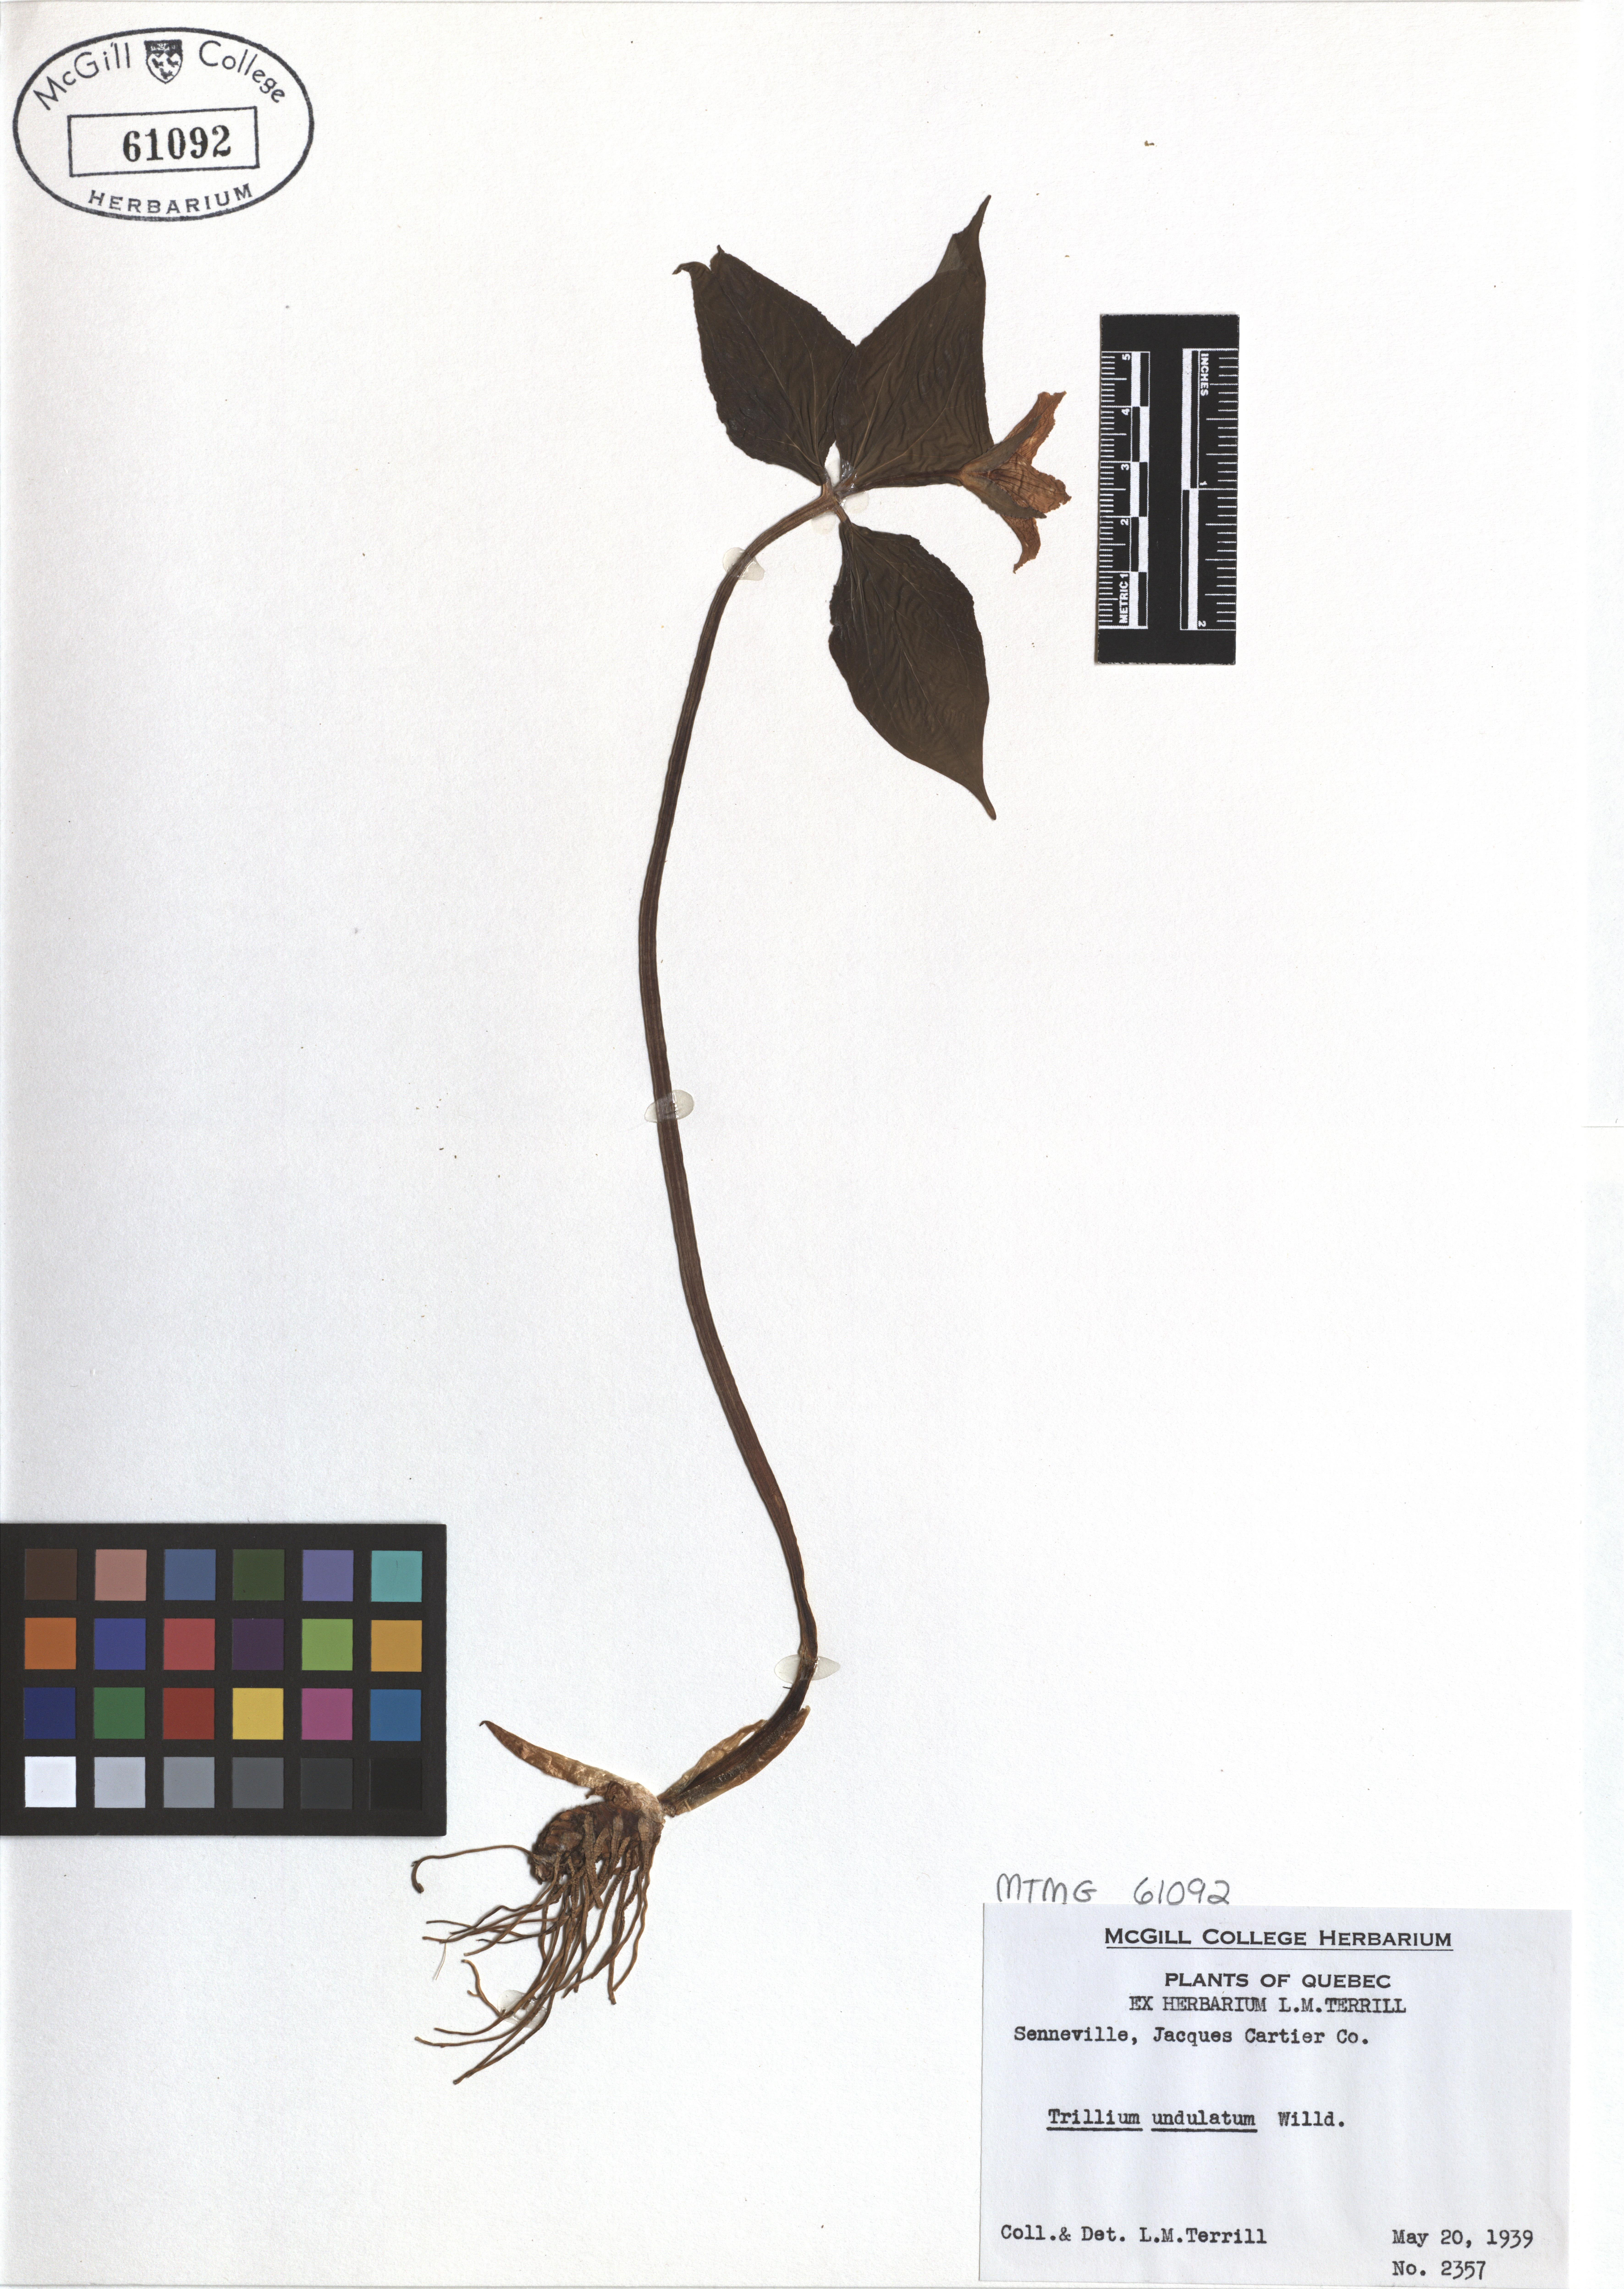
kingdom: Plantae
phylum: Tracheophyta
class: Liliopsida
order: Liliales
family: Melanthiaceae
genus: Trillium
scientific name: Trillium undulatum
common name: Paint trillium
